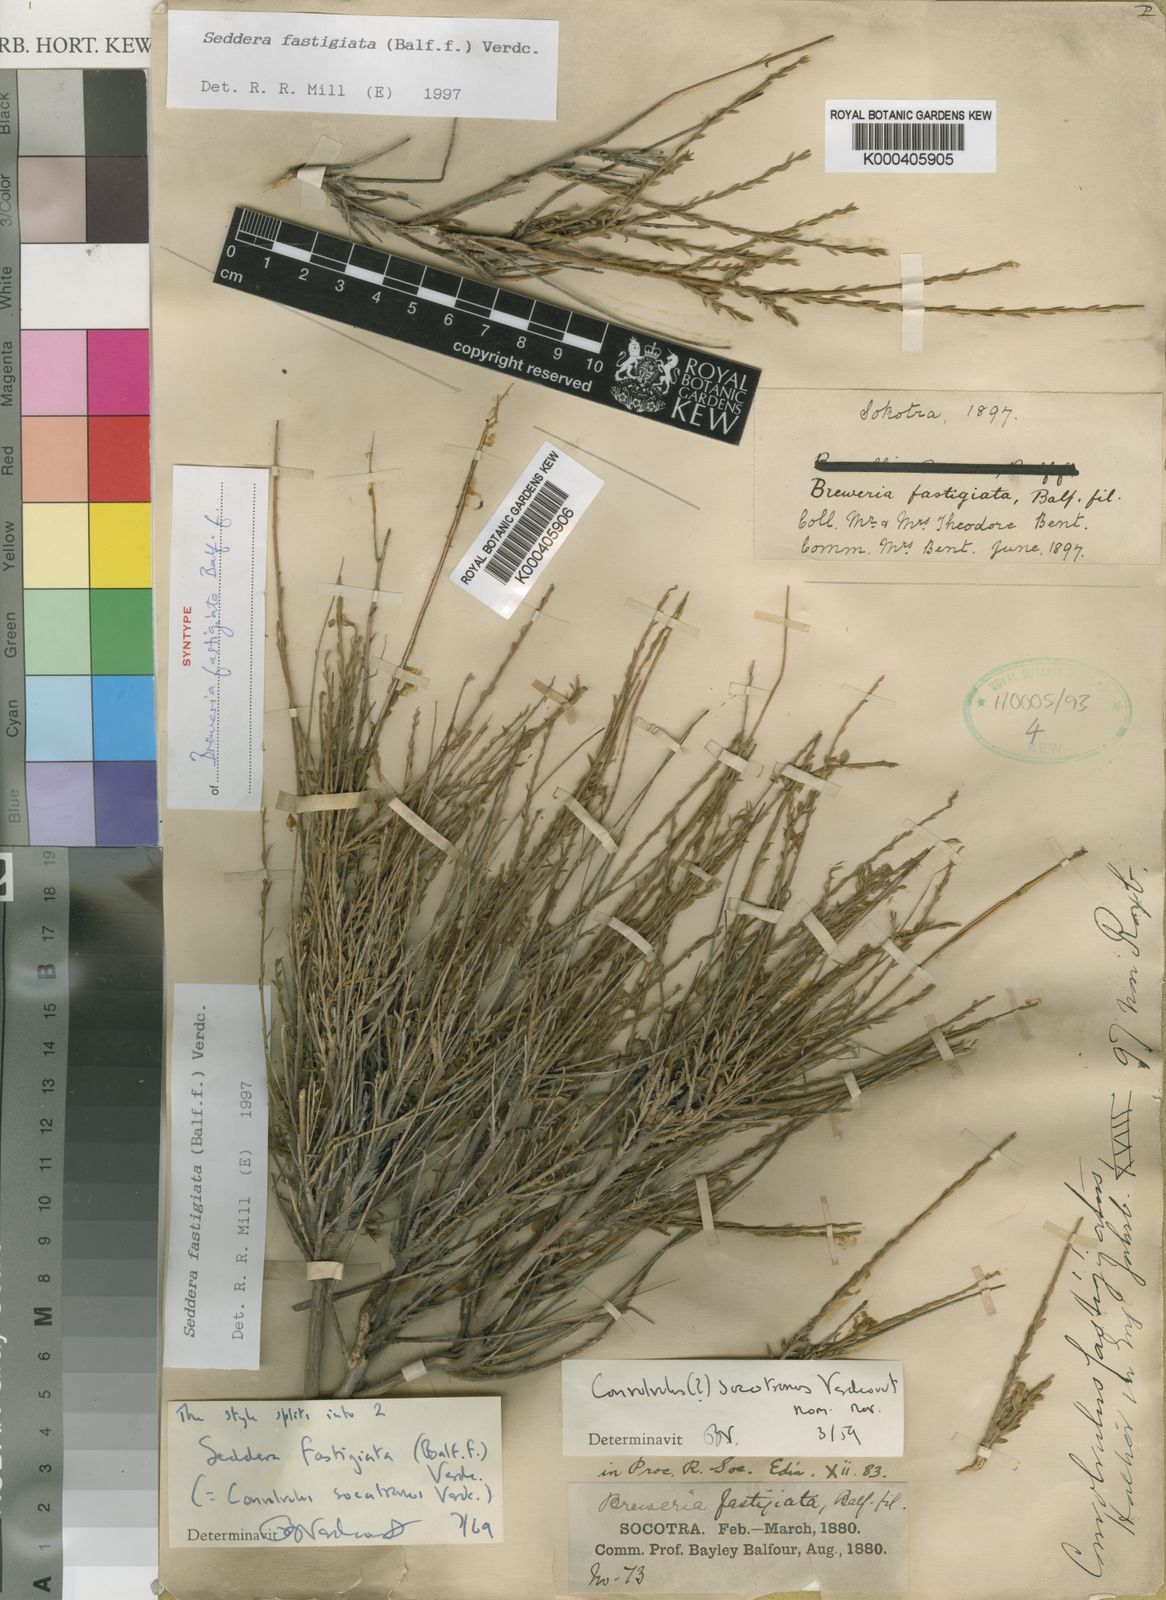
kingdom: Plantae
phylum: Tracheophyta
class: Magnoliopsida
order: Solanales
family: Convolvulaceae
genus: Convolvulus
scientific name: Convolvulus socotranus
